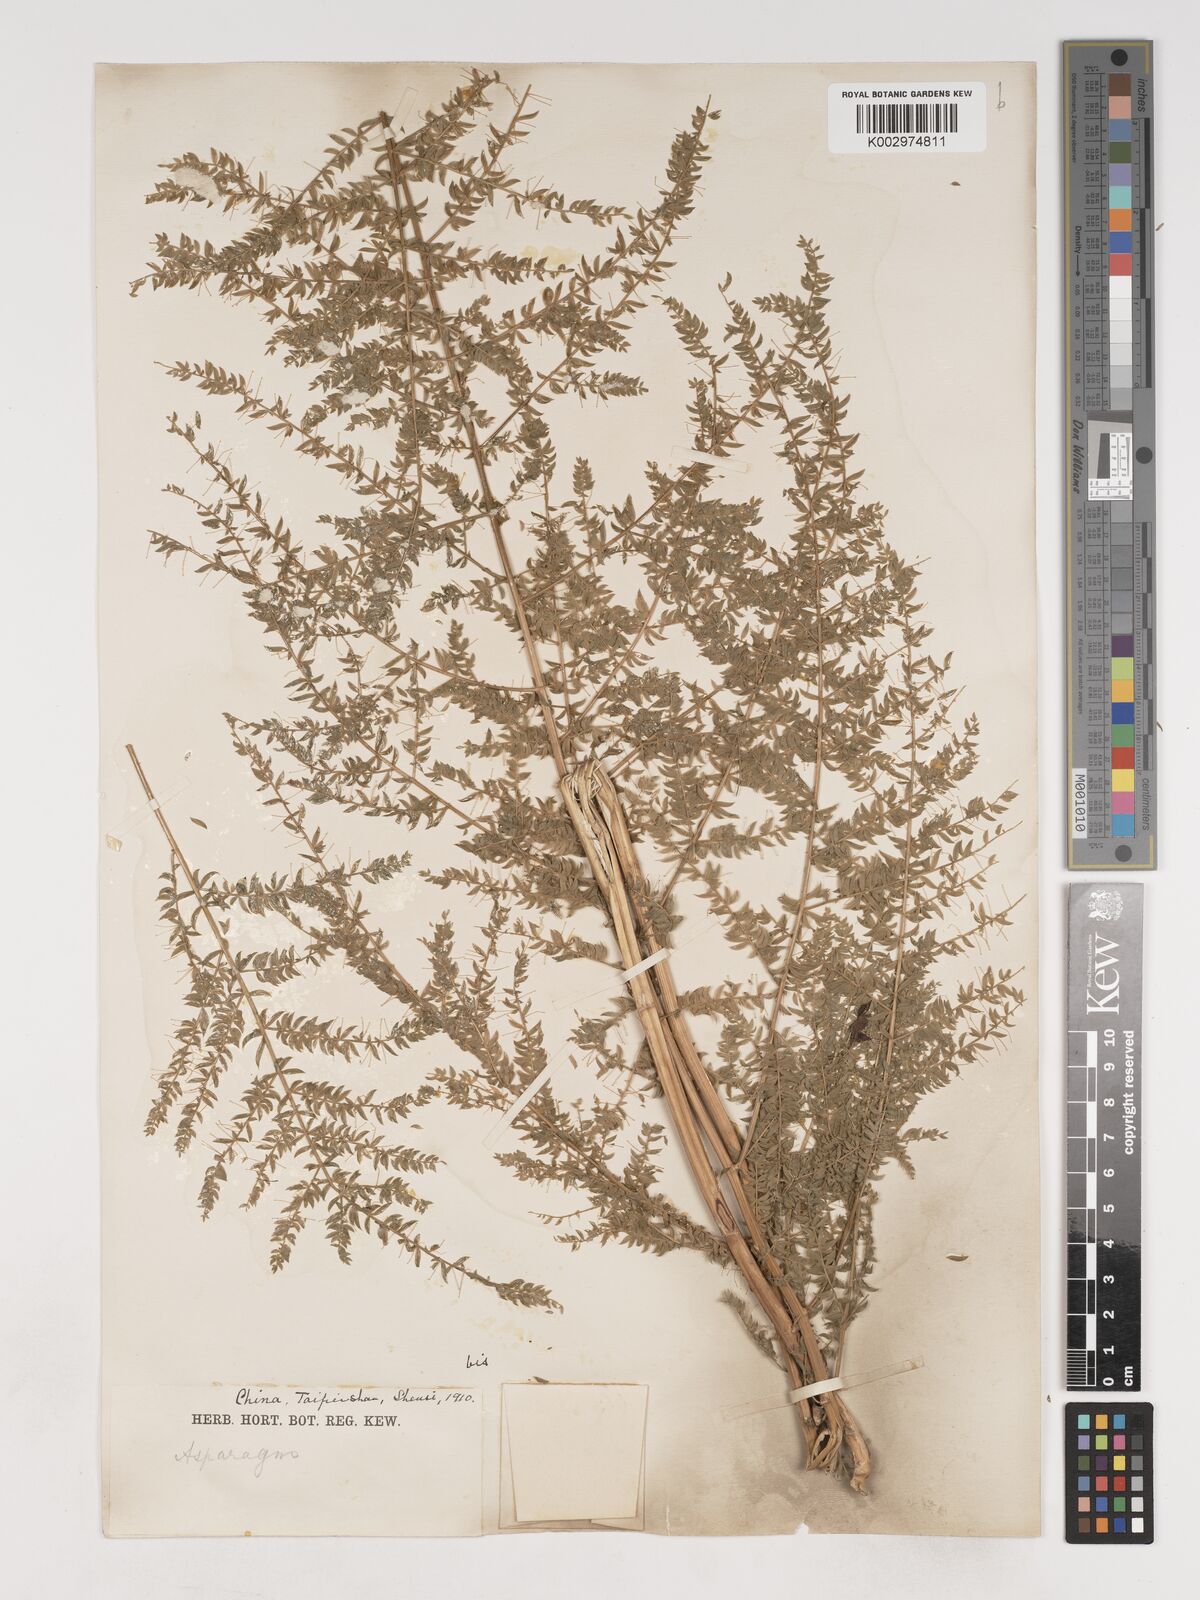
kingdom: Plantae
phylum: Tracheophyta
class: Liliopsida
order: Asparagales
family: Asparagaceae
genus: Asparagus
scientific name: Asparagus filicinus
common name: Fern asparagus
